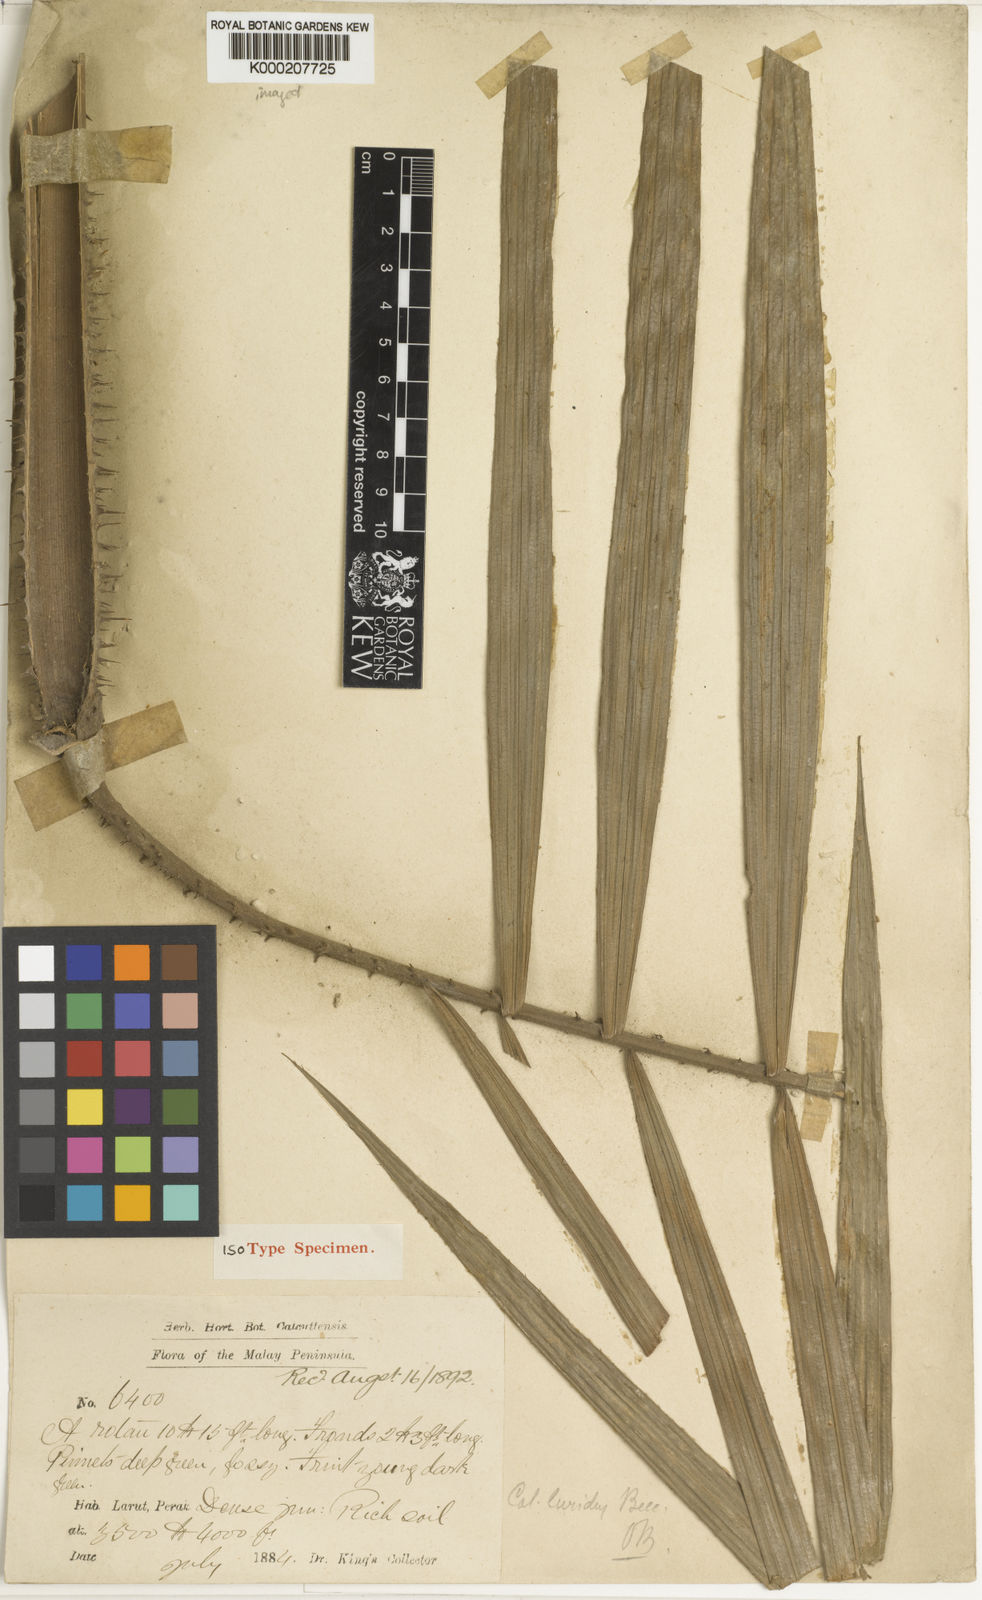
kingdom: Plantae
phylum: Tracheophyta
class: Liliopsida
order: Arecales
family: Arecaceae
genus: Calamus
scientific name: Calamus micranthus
